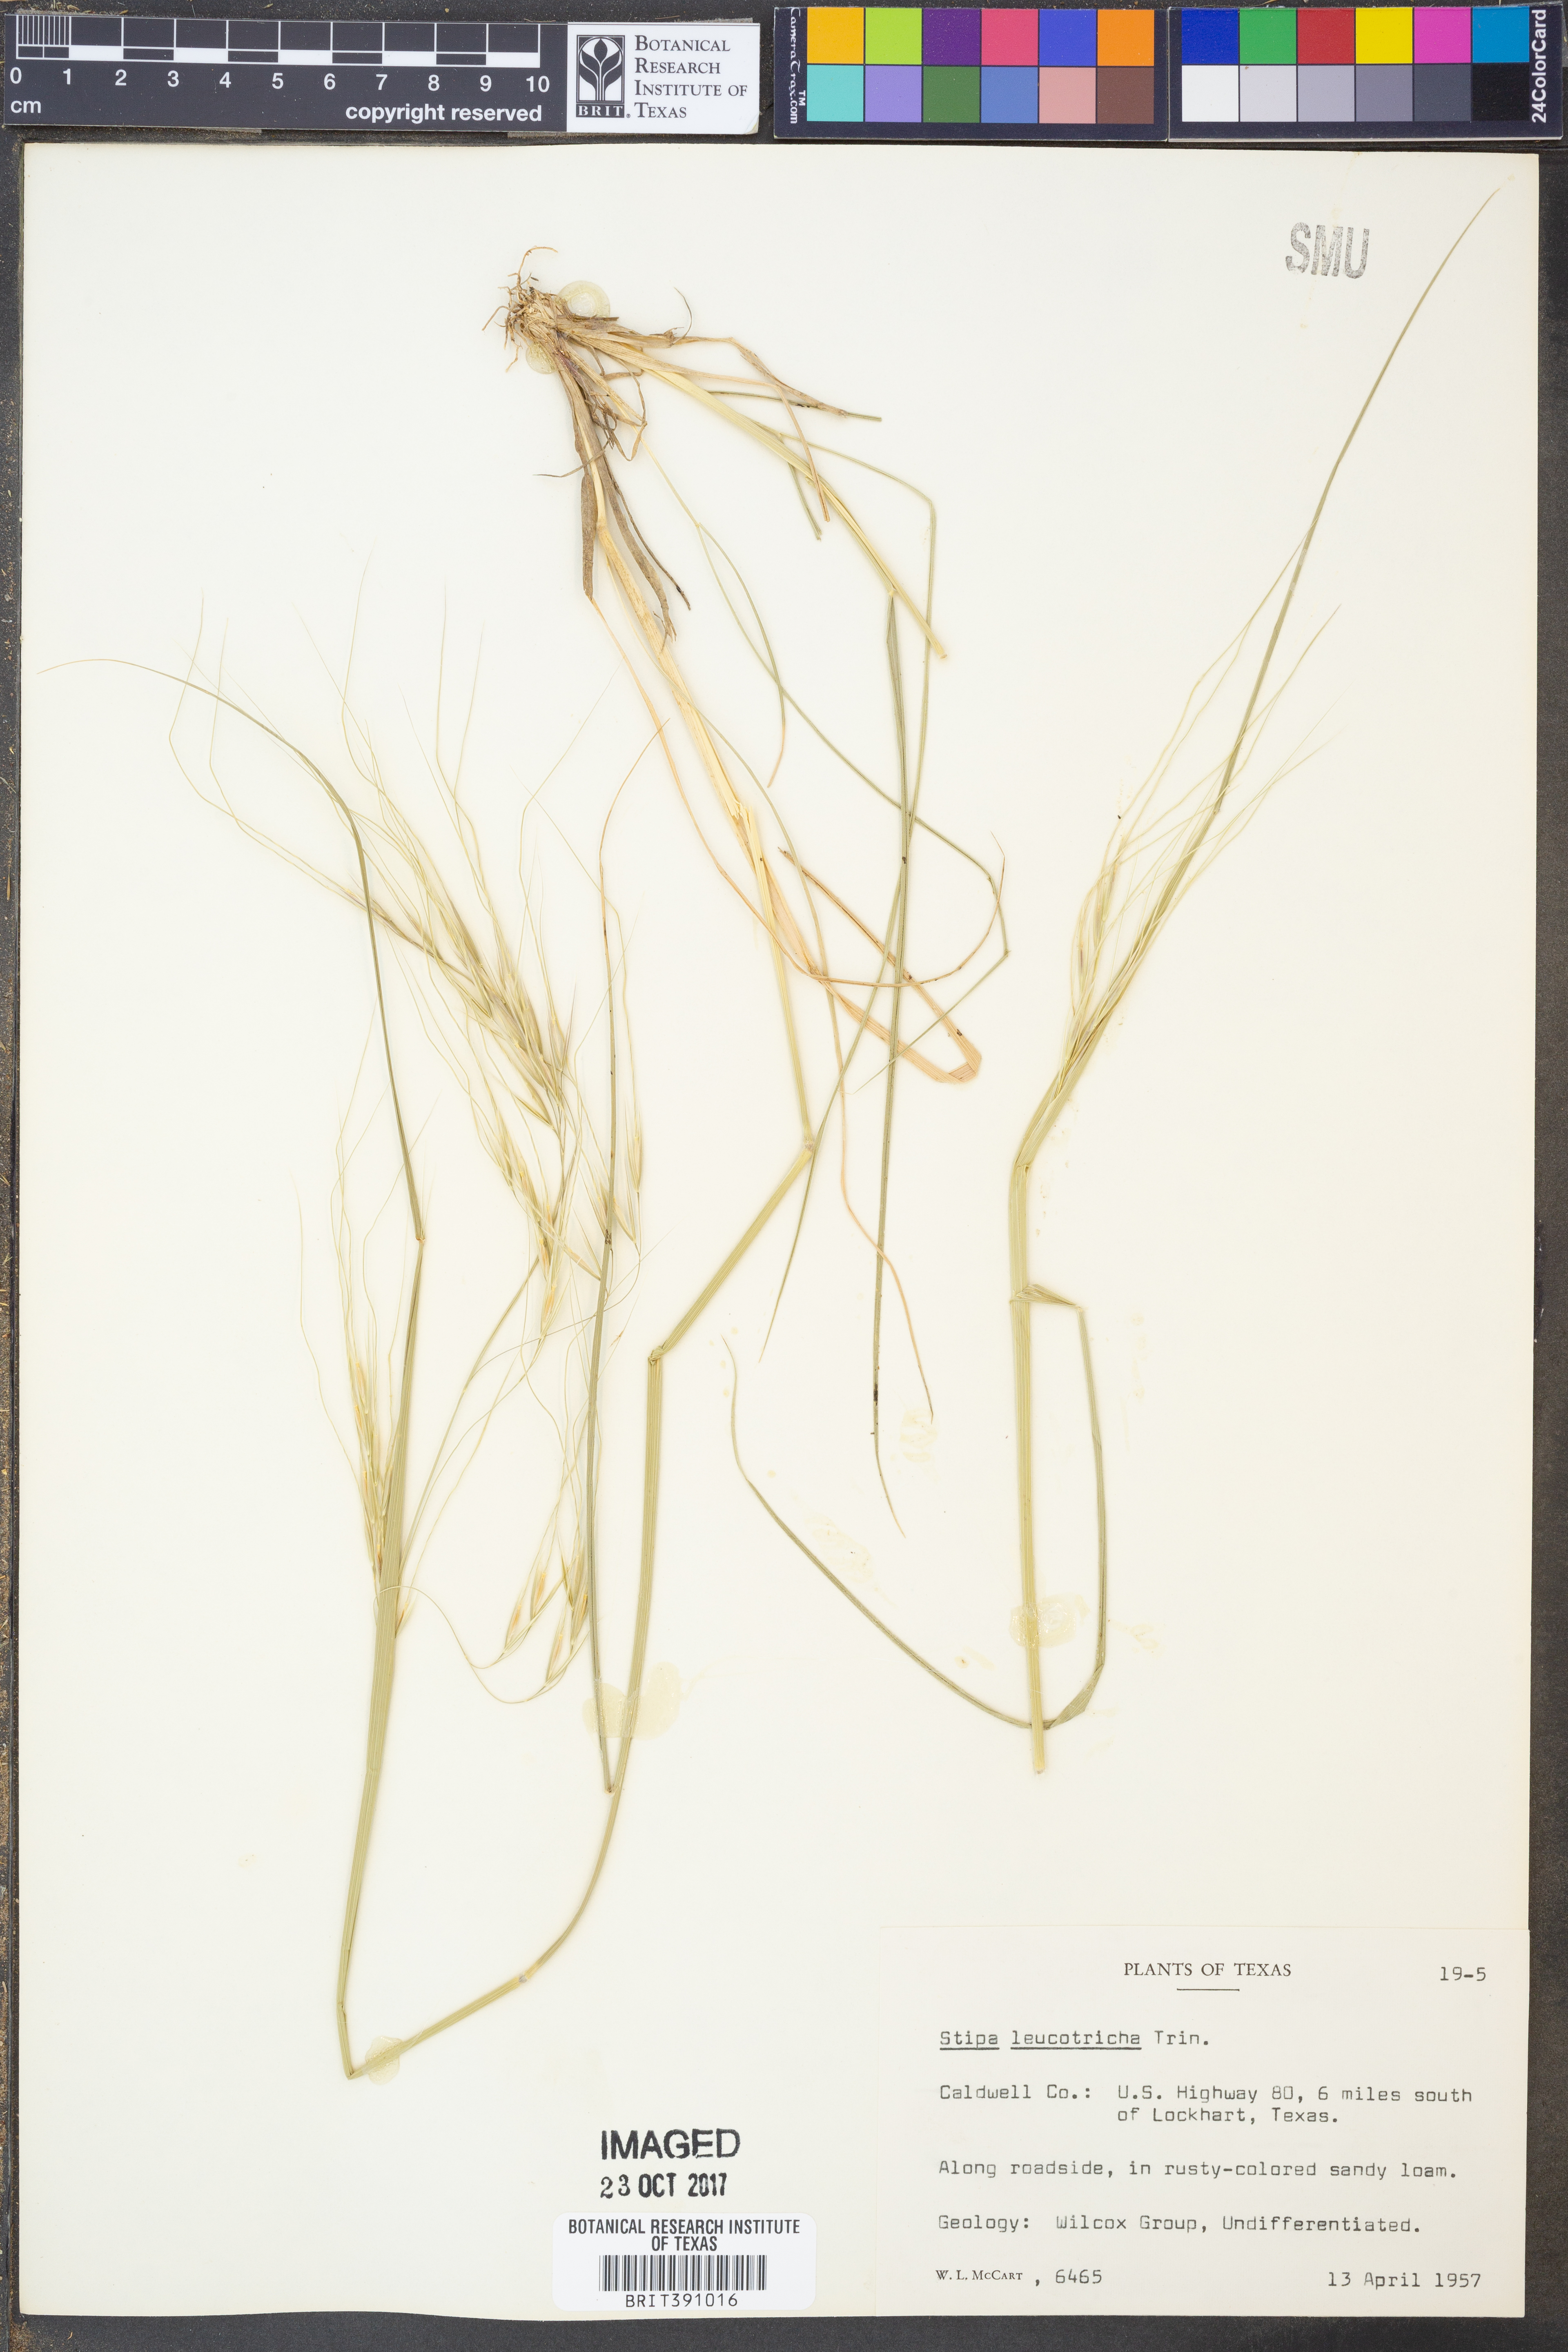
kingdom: Plantae
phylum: Tracheophyta
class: Liliopsida
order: Poales
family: Poaceae
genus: Nassella
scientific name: Nassella leucotricha
